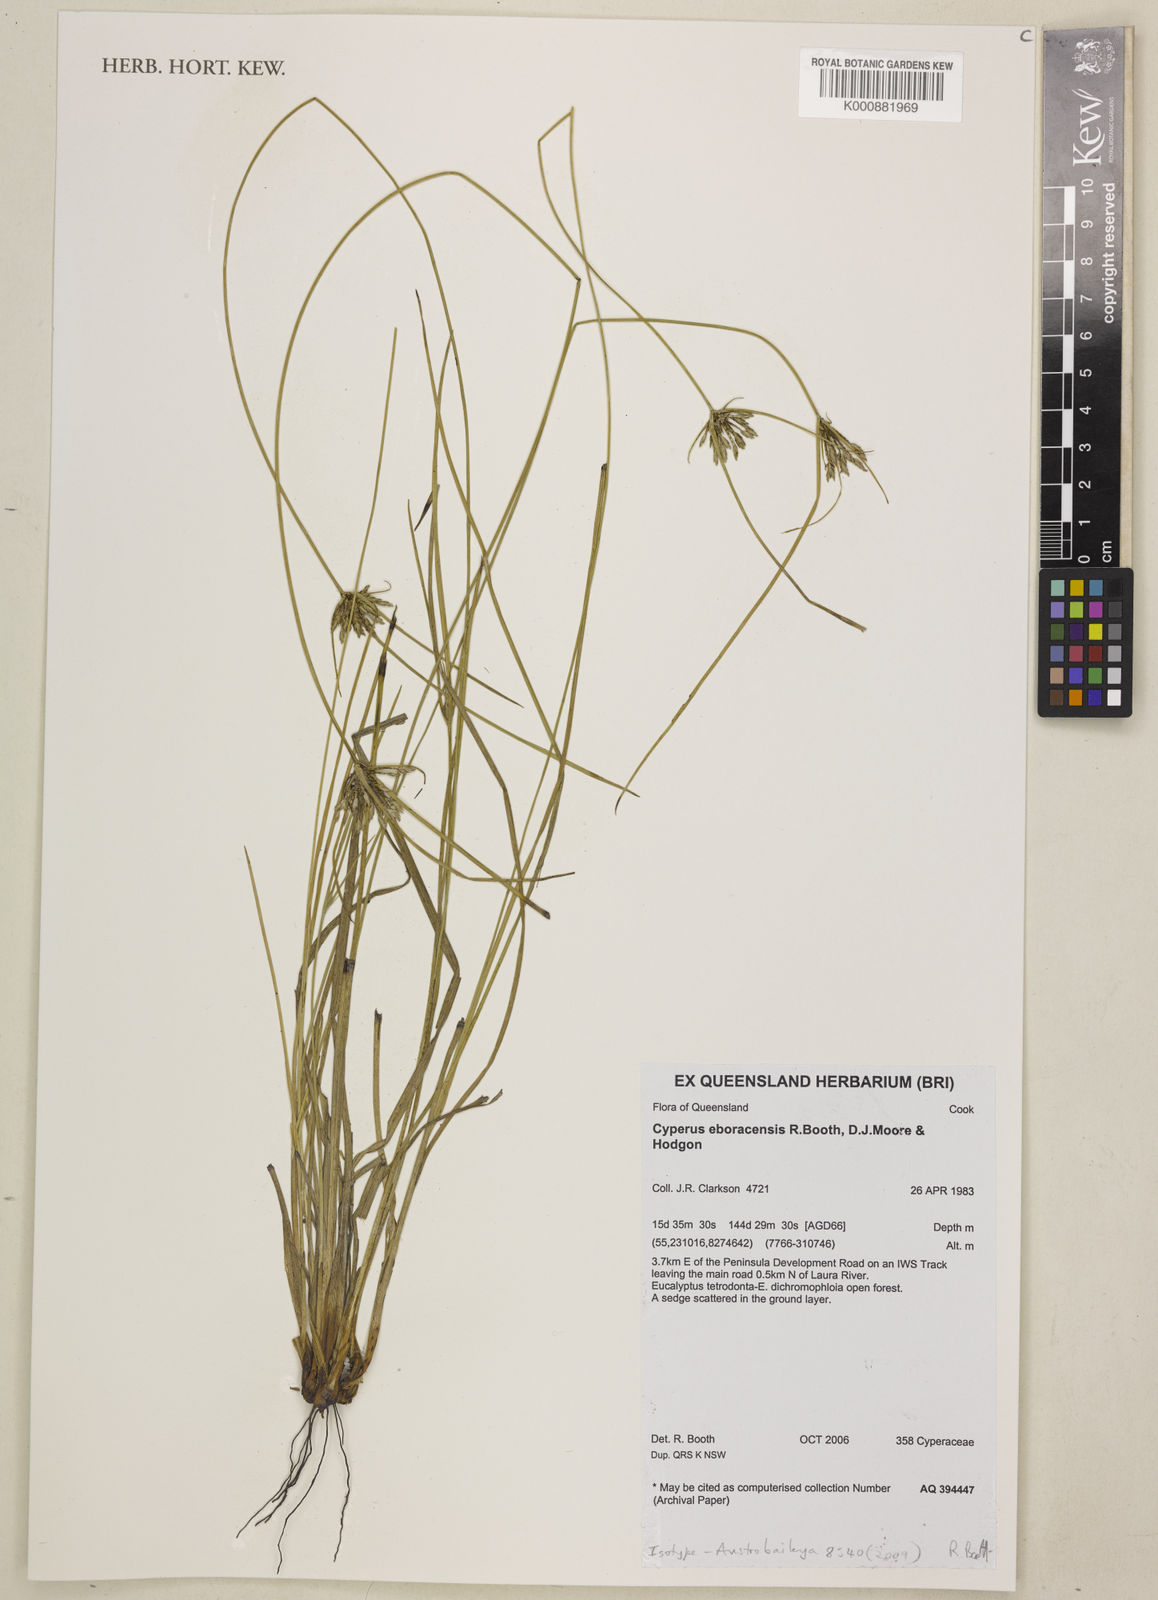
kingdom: Plantae
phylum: Tracheophyta
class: Liliopsida
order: Poales
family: Cyperaceae
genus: Cyperus
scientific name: Cyperus eboracensis
